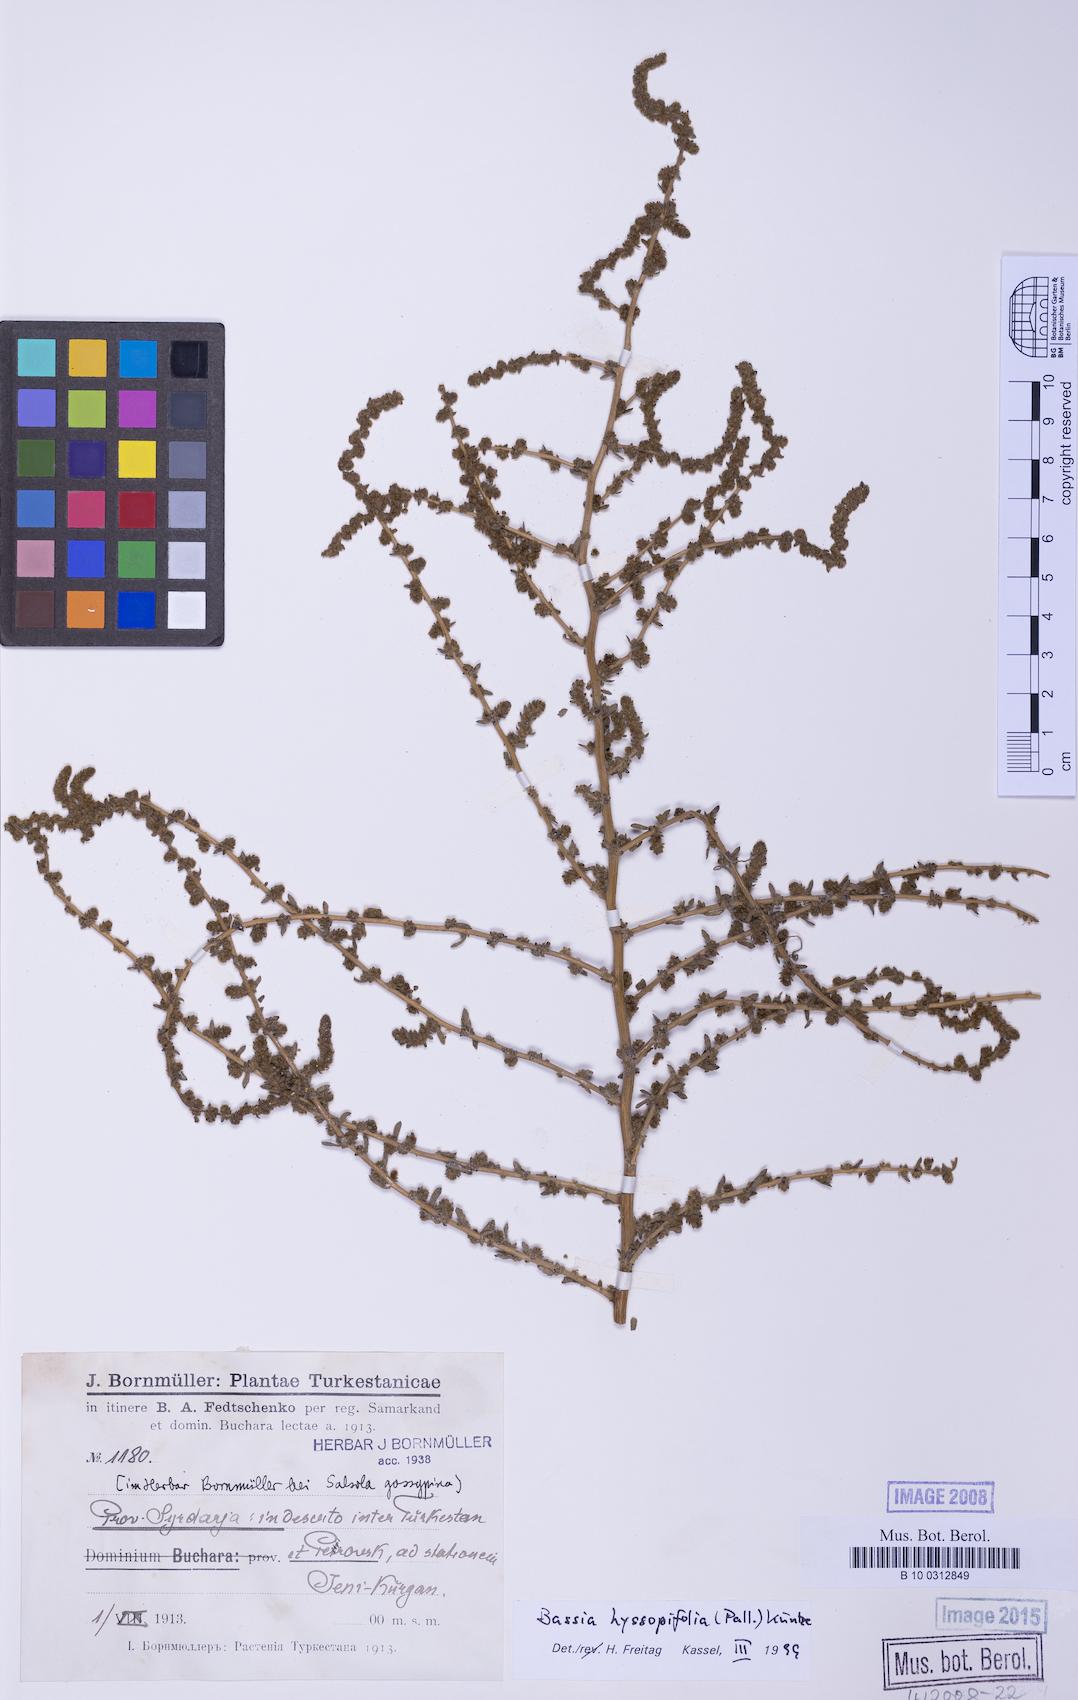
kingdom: Plantae
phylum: Tracheophyta
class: Magnoliopsida
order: Caryophyllales
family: Amaranthaceae
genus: Bassia
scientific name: Bassia hyssopifolia
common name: Fivehorn smotherweed
